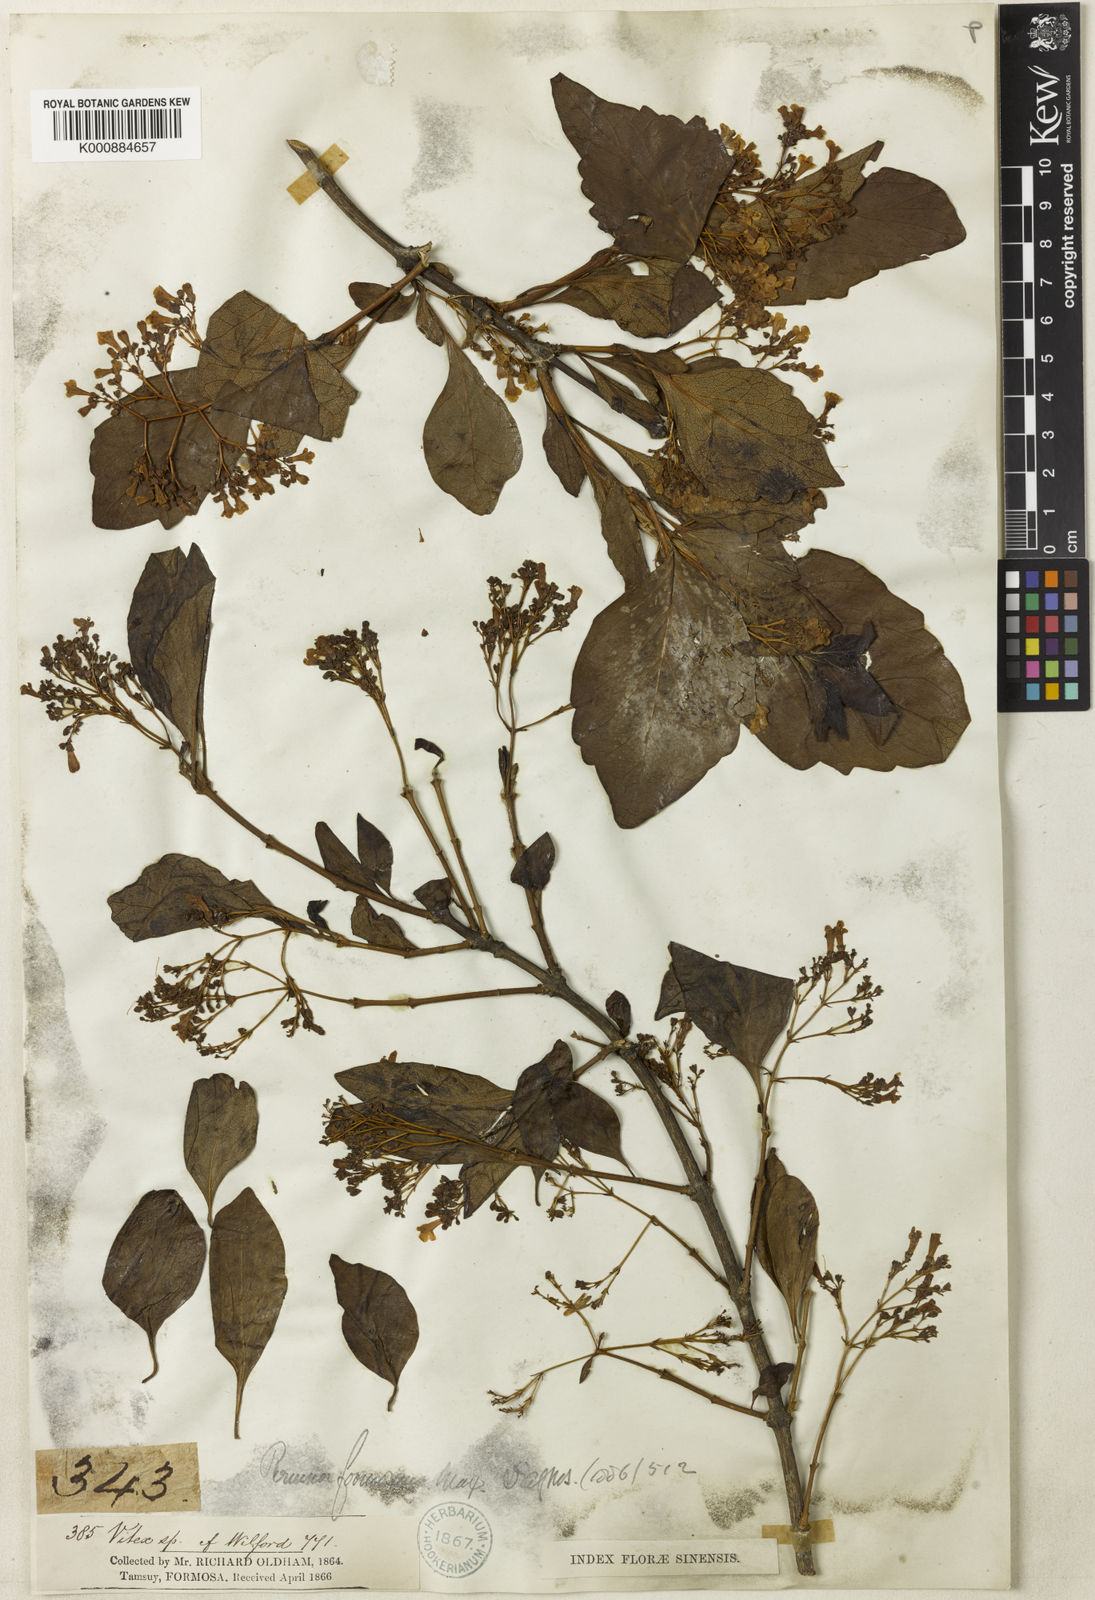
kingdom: Plantae
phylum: Tracheophyta
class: Magnoliopsida
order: Lamiales
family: Lamiaceae
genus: Premna
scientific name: Premna microphylla
